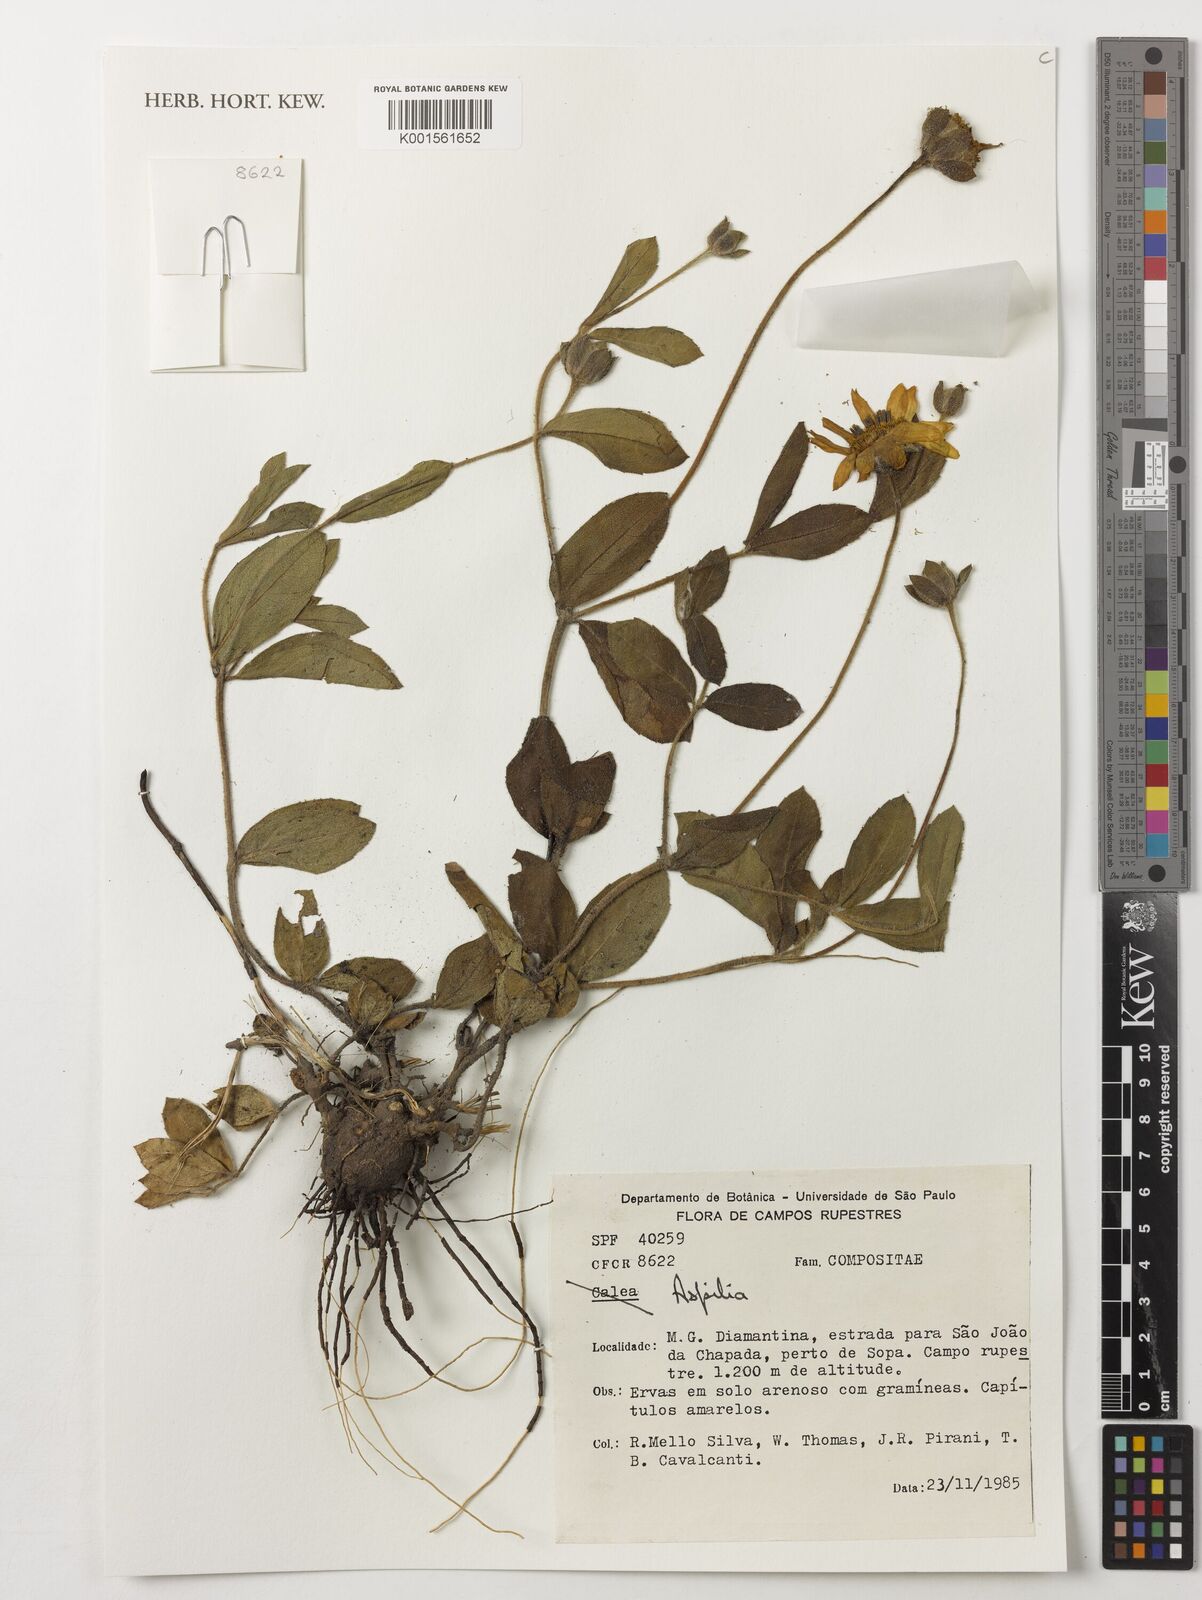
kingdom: Plantae
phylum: Tracheophyta
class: Magnoliopsida
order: Asterales
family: Asteraceae
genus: Aspilia
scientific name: Aspilia
